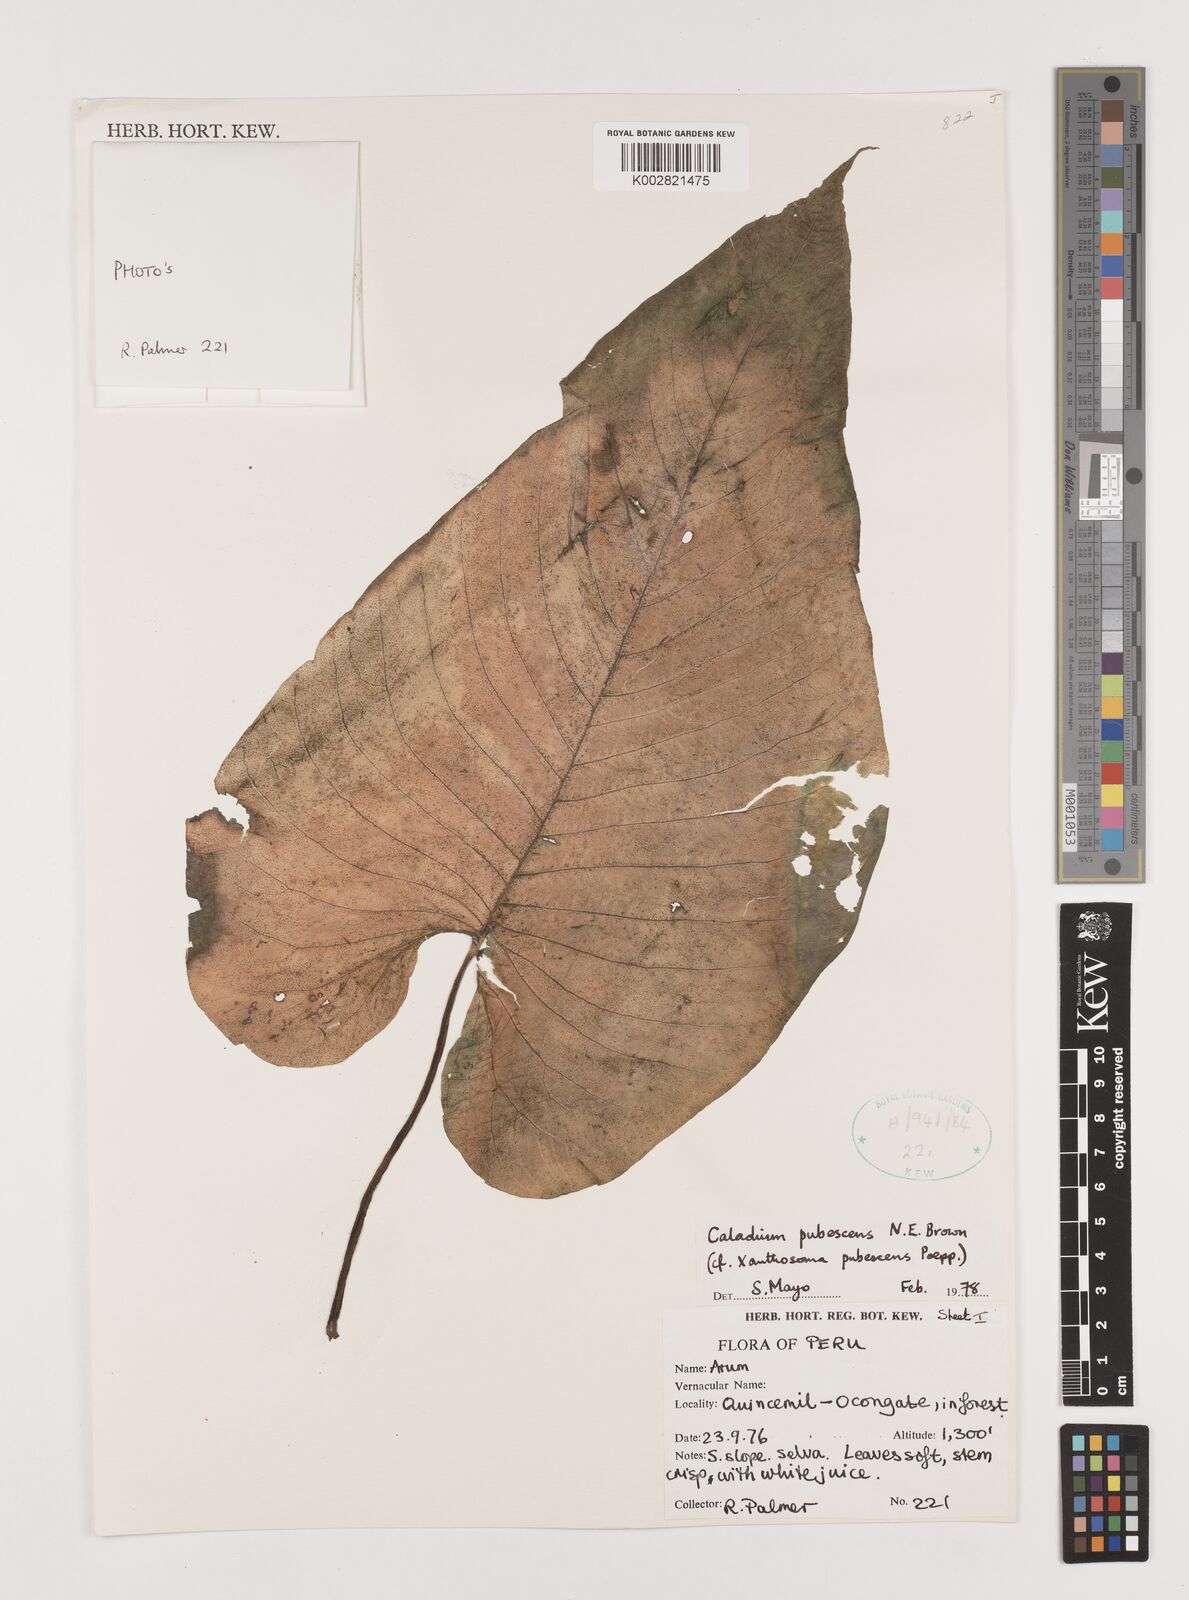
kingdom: Plantae
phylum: Tracheophyta
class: Liliopsida
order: Alismatales
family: Araceae
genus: Xanthosoma
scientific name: Xanthosoma pubescens
